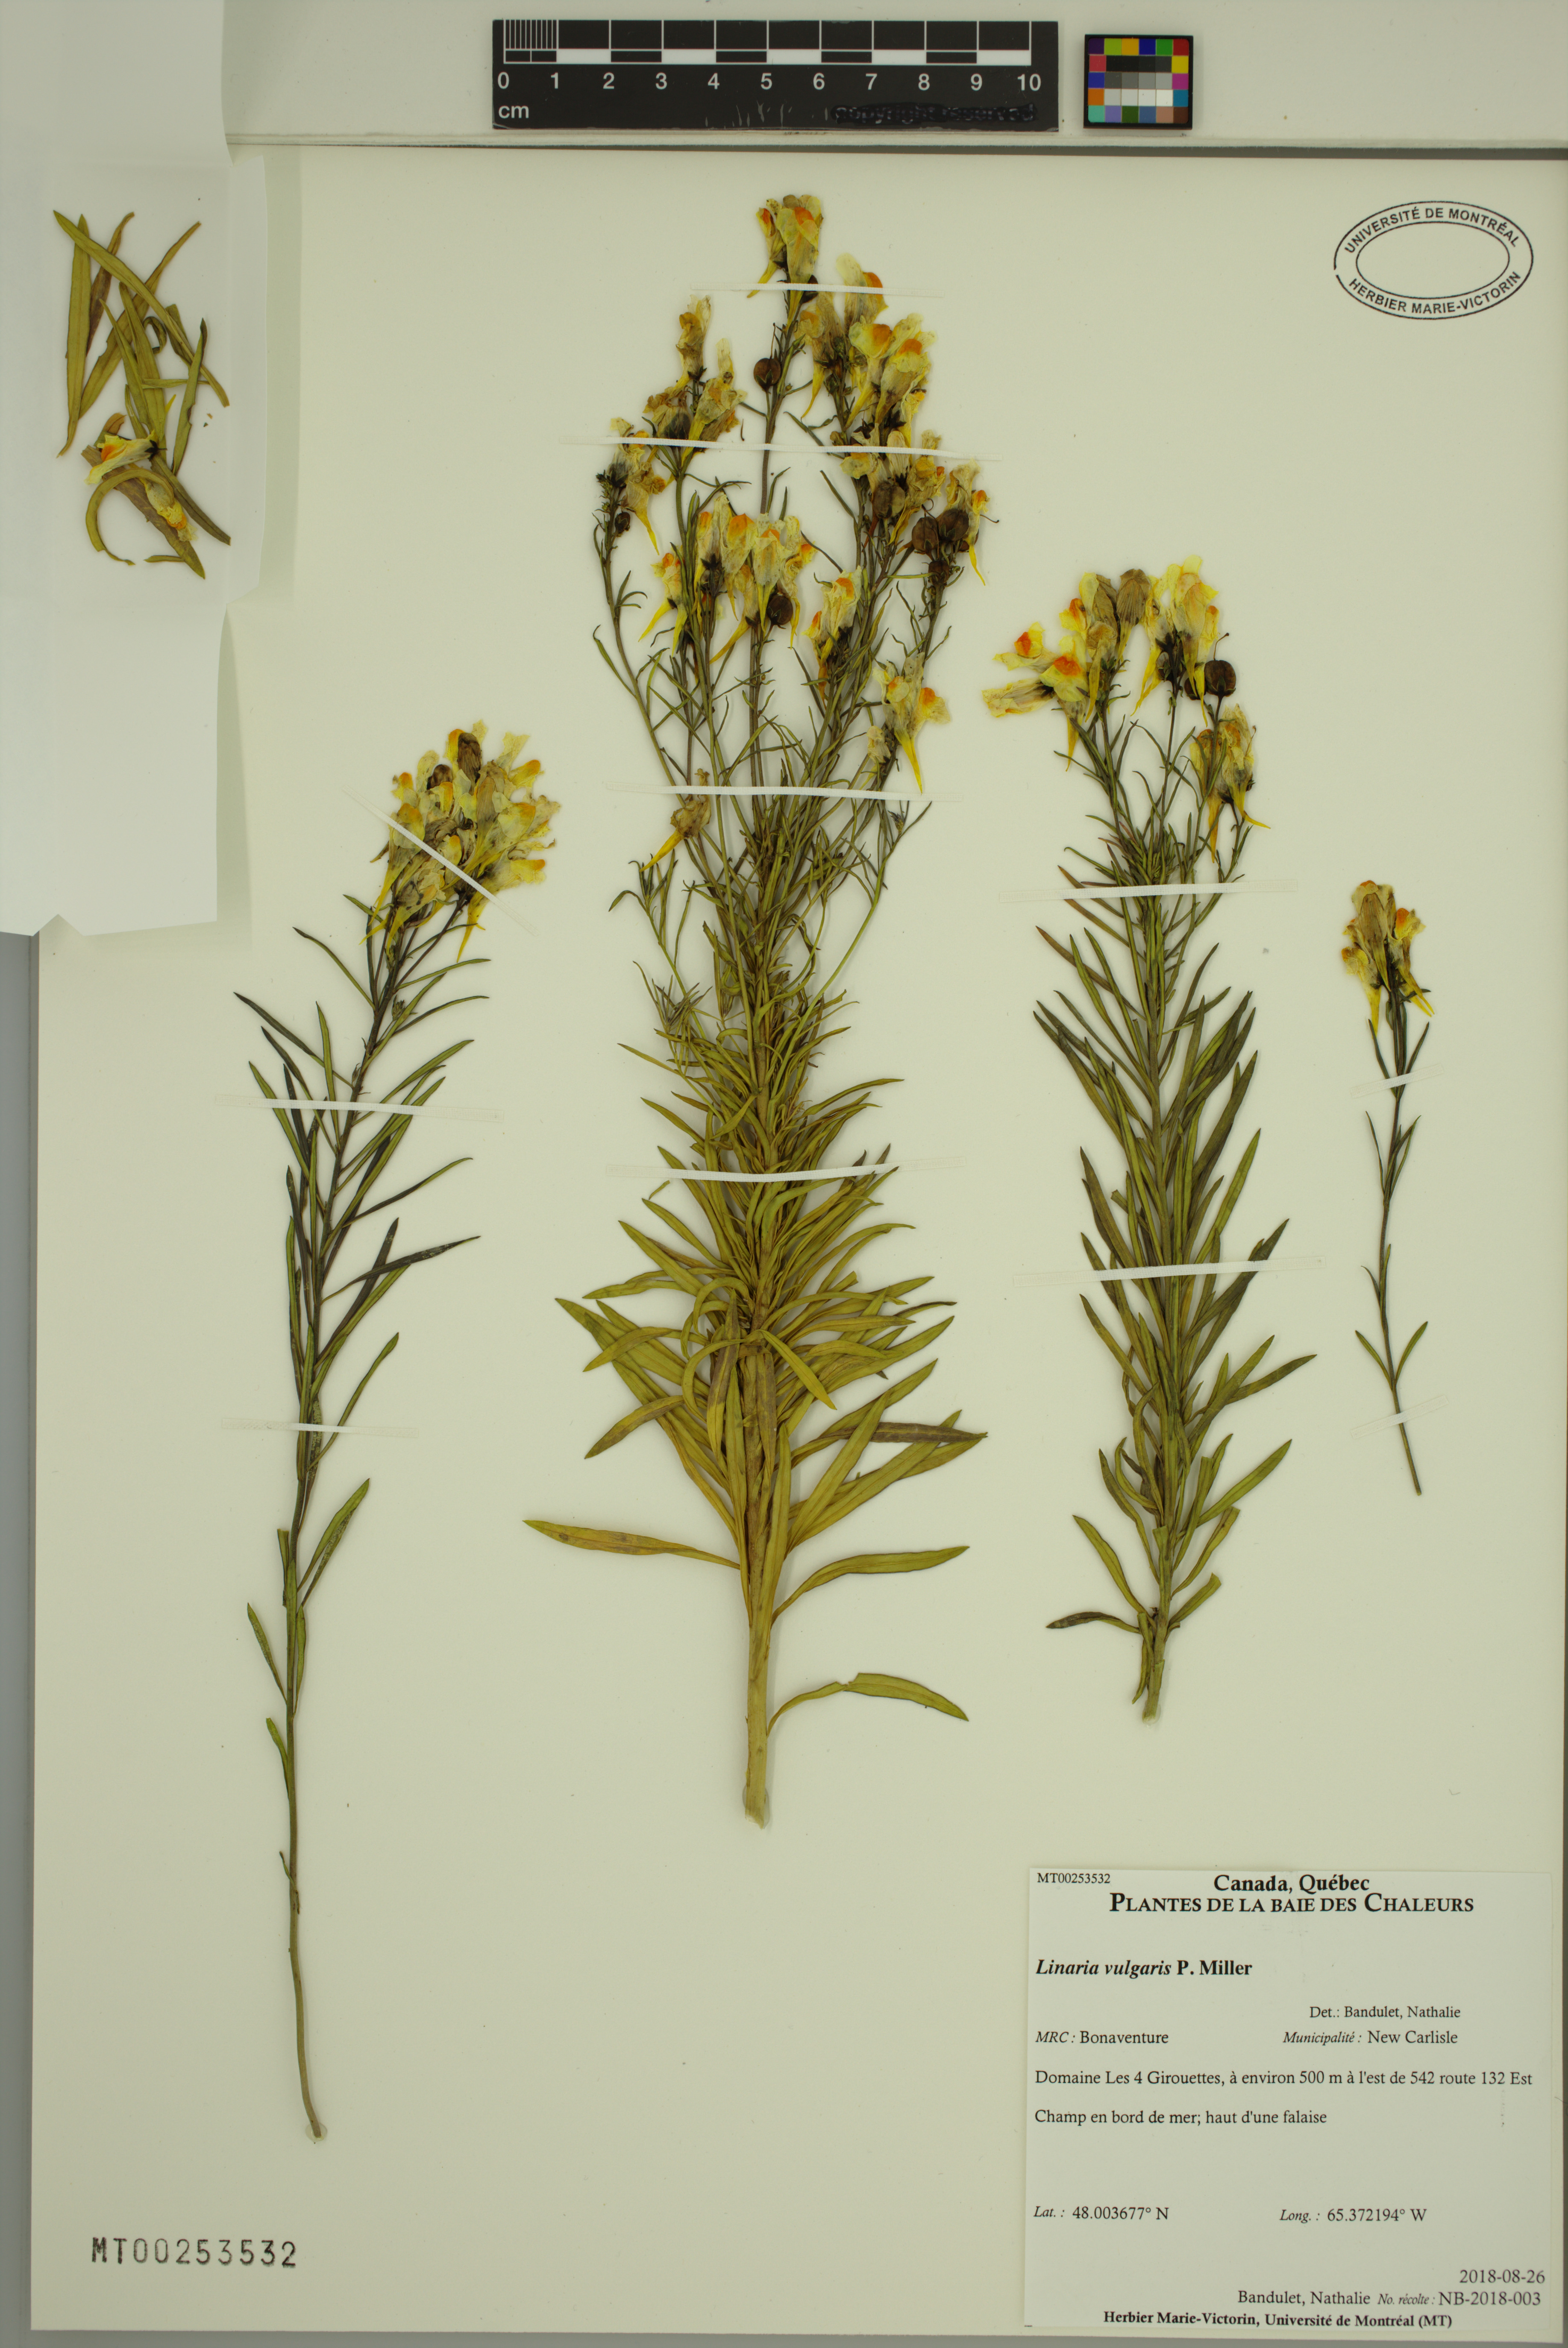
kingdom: Plantae
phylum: Tracheophyta
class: Magnoliopsida
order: Lamiales
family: Plantaginaceae
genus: Linaria
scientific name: Linaria vulgaris
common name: Butter and eggs
